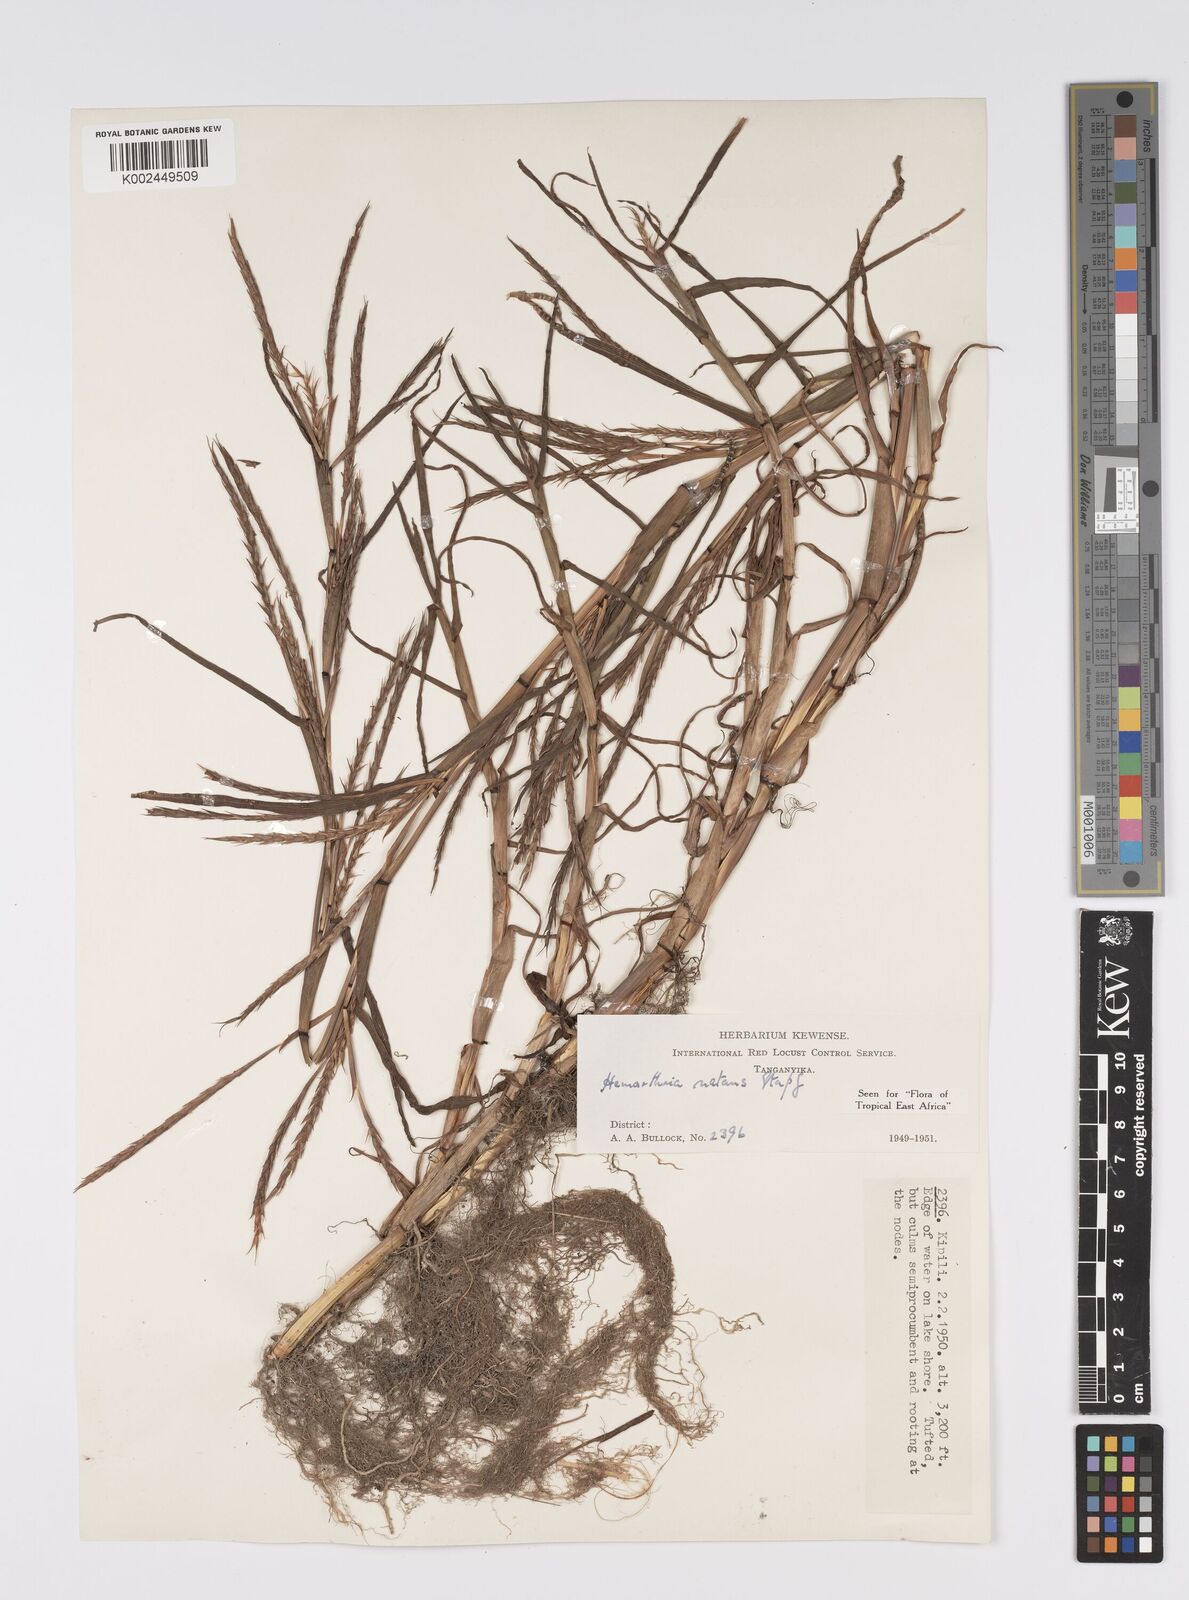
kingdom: Plantae
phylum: Tracheophyta
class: Liliopsida
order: Poales
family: Poaceae
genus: Hemarthria
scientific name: Hemarthria natans
